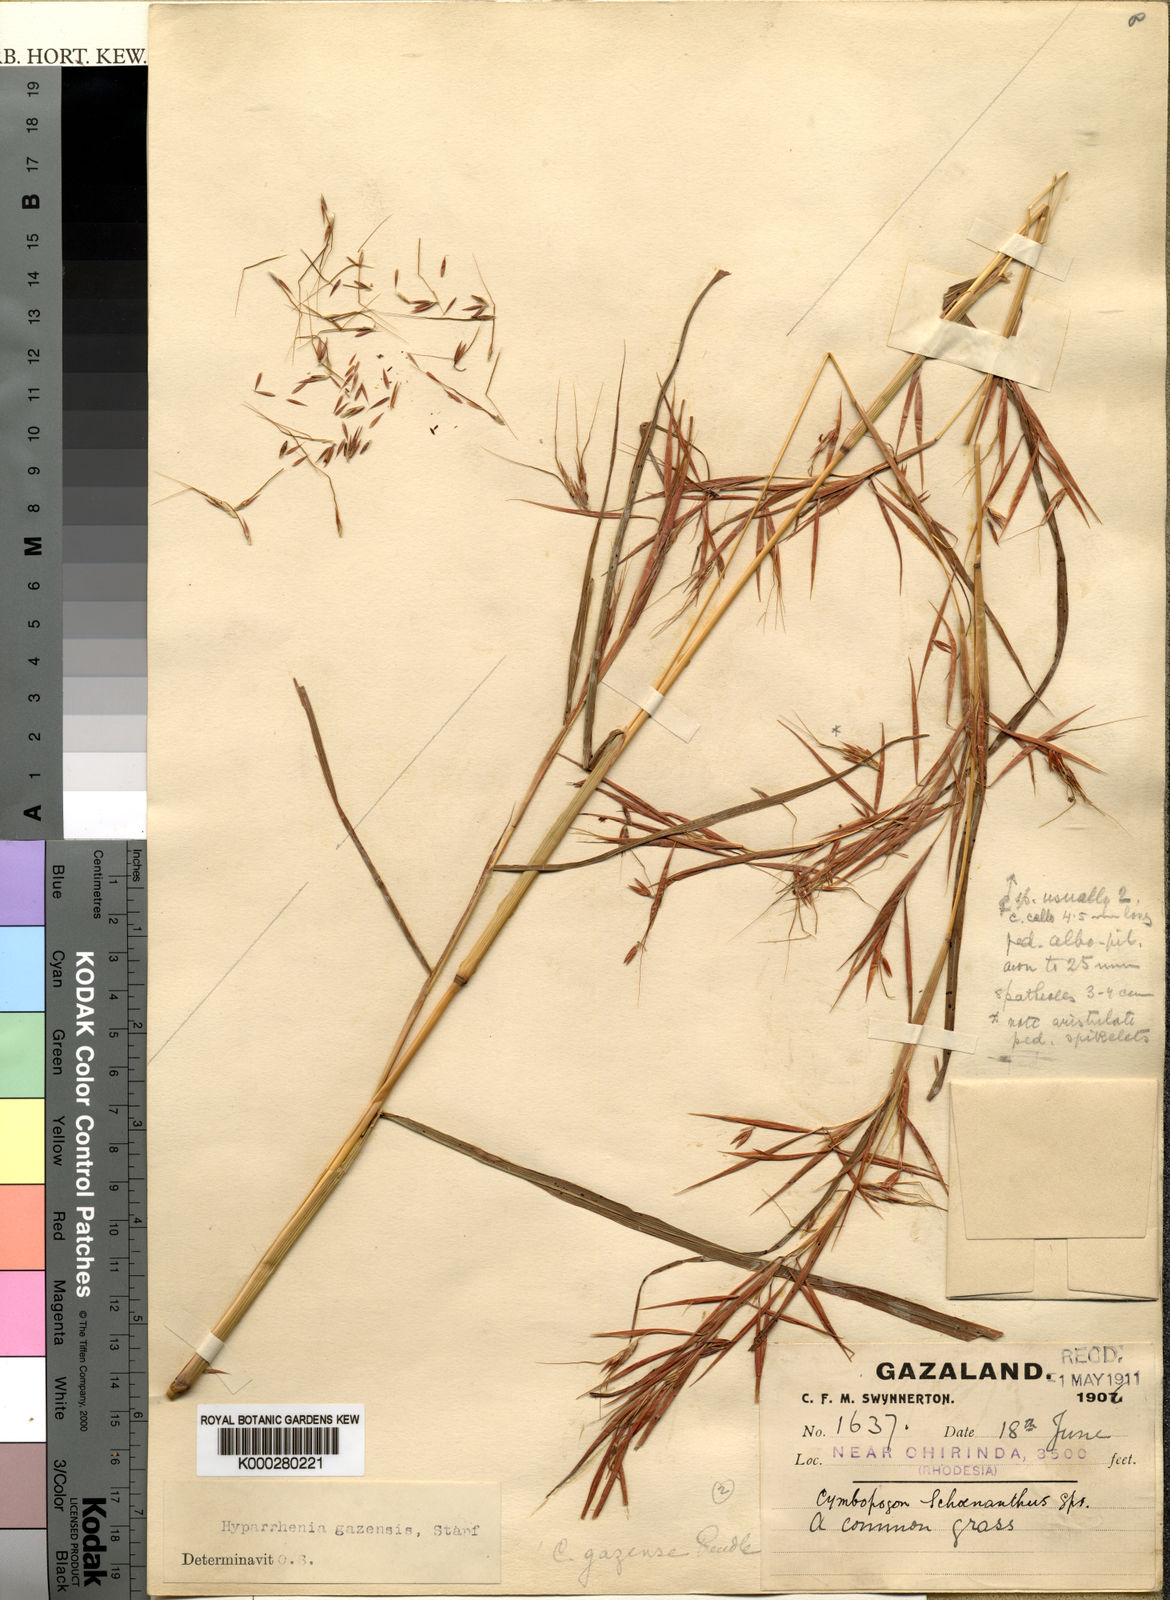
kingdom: Plantae
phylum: Tracheophyta
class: Liliopsida
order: Poales
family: Poaceae
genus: Hyparrhenia
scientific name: Hyparrhenia gazensis
